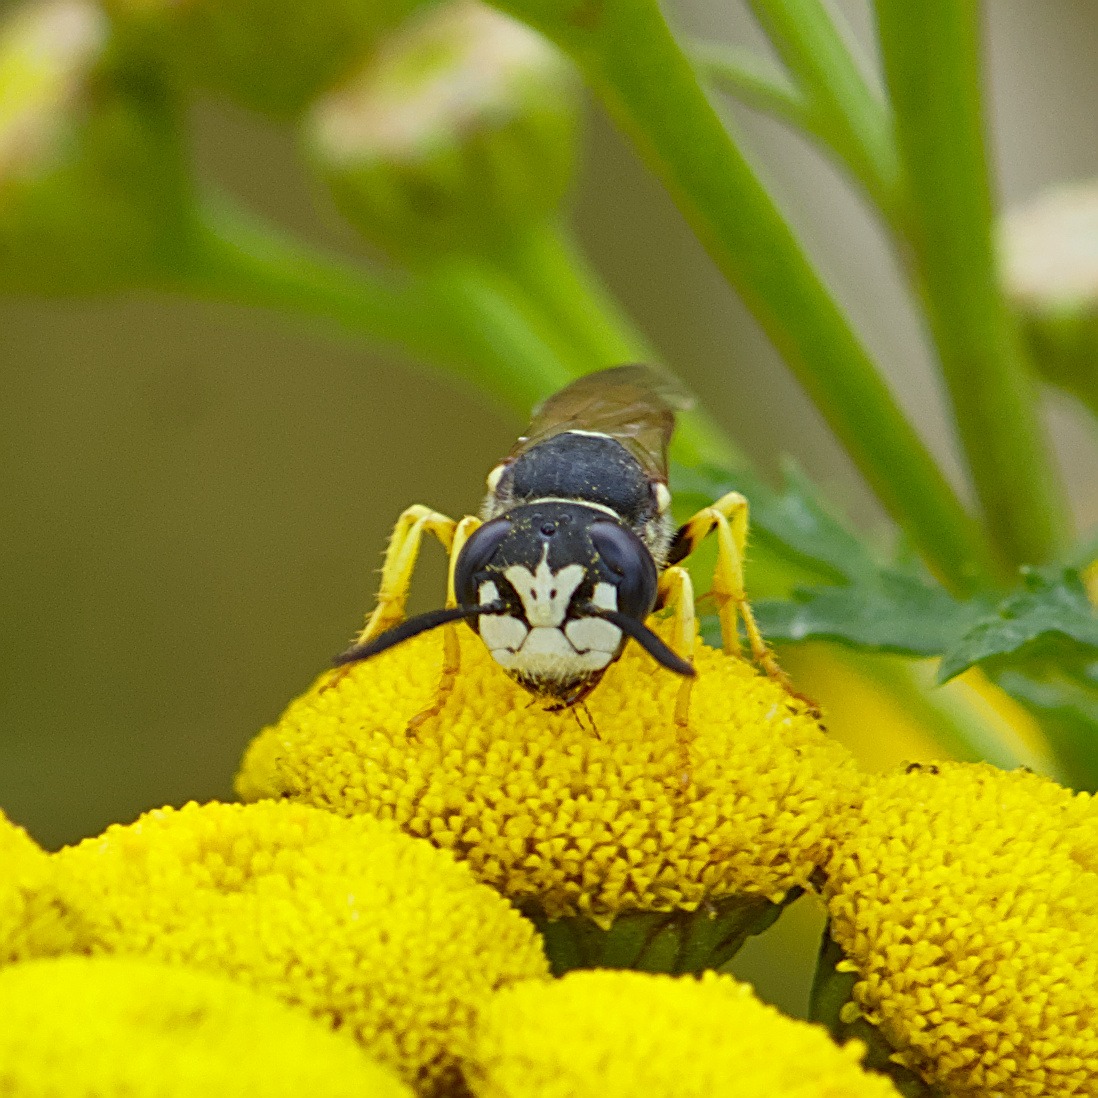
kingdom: Animalia
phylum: Arthropoda
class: Insecta
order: Hymenoptera
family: Crabronidae
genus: Philanthus
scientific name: Philanthus triangulum
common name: Biulv
